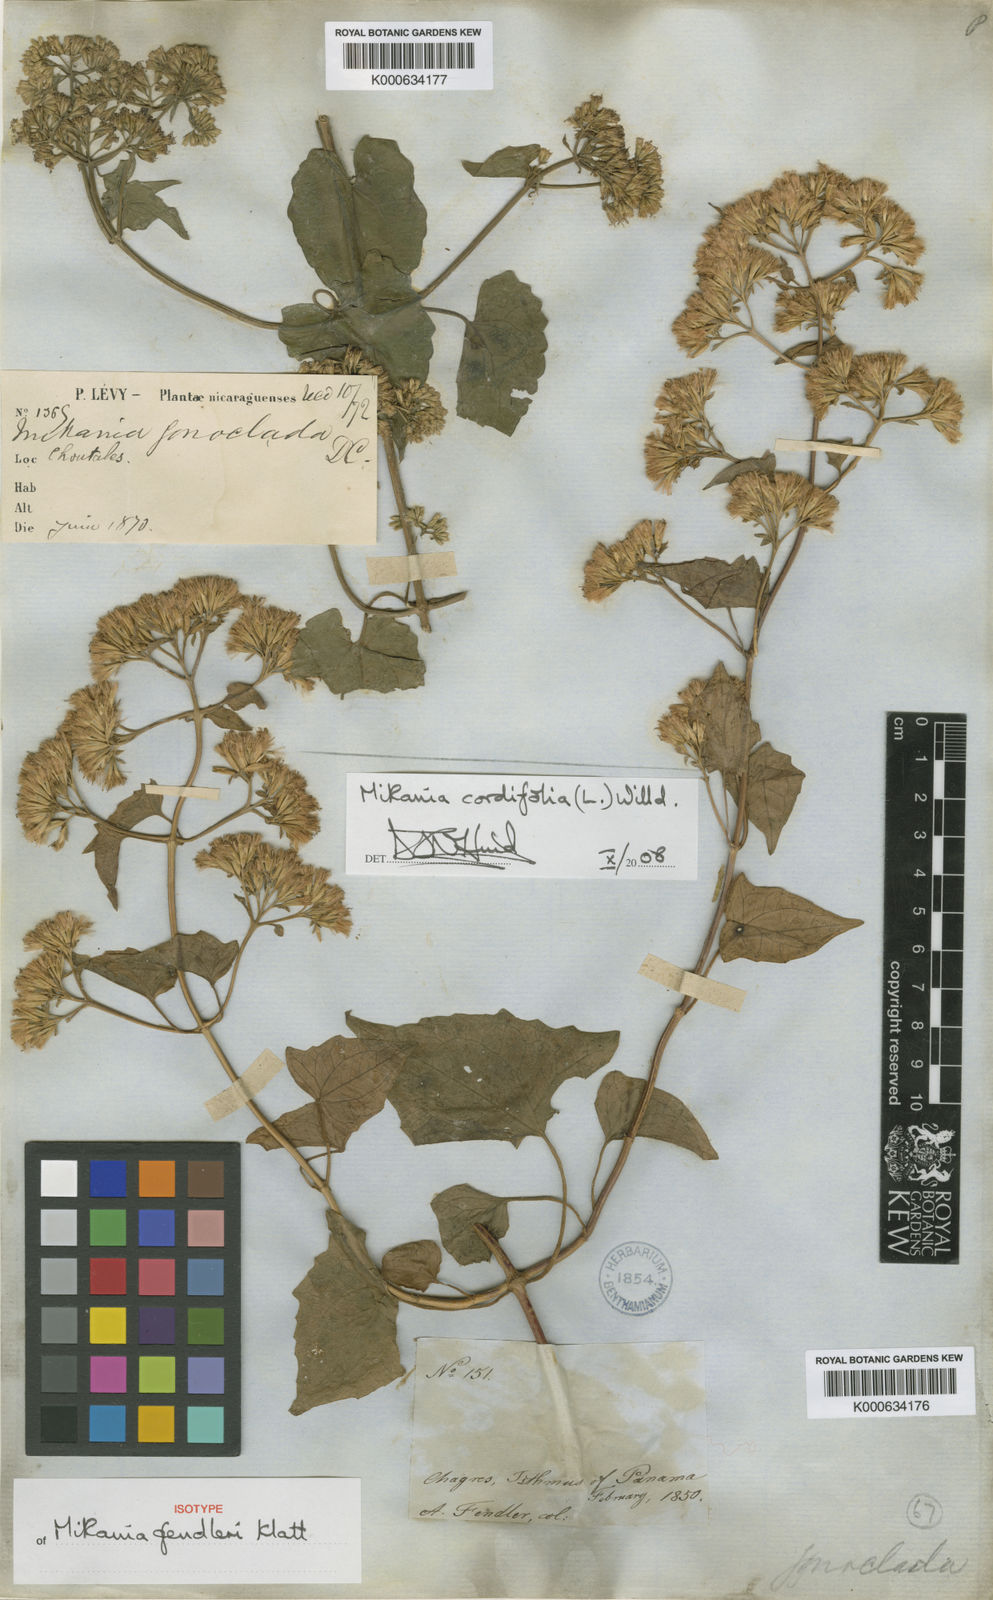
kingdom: Plantae
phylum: Tracheophyta
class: Magnoliopsida
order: Asterales
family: Asteraceae
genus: Mikania
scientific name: Mikania cordifolia
